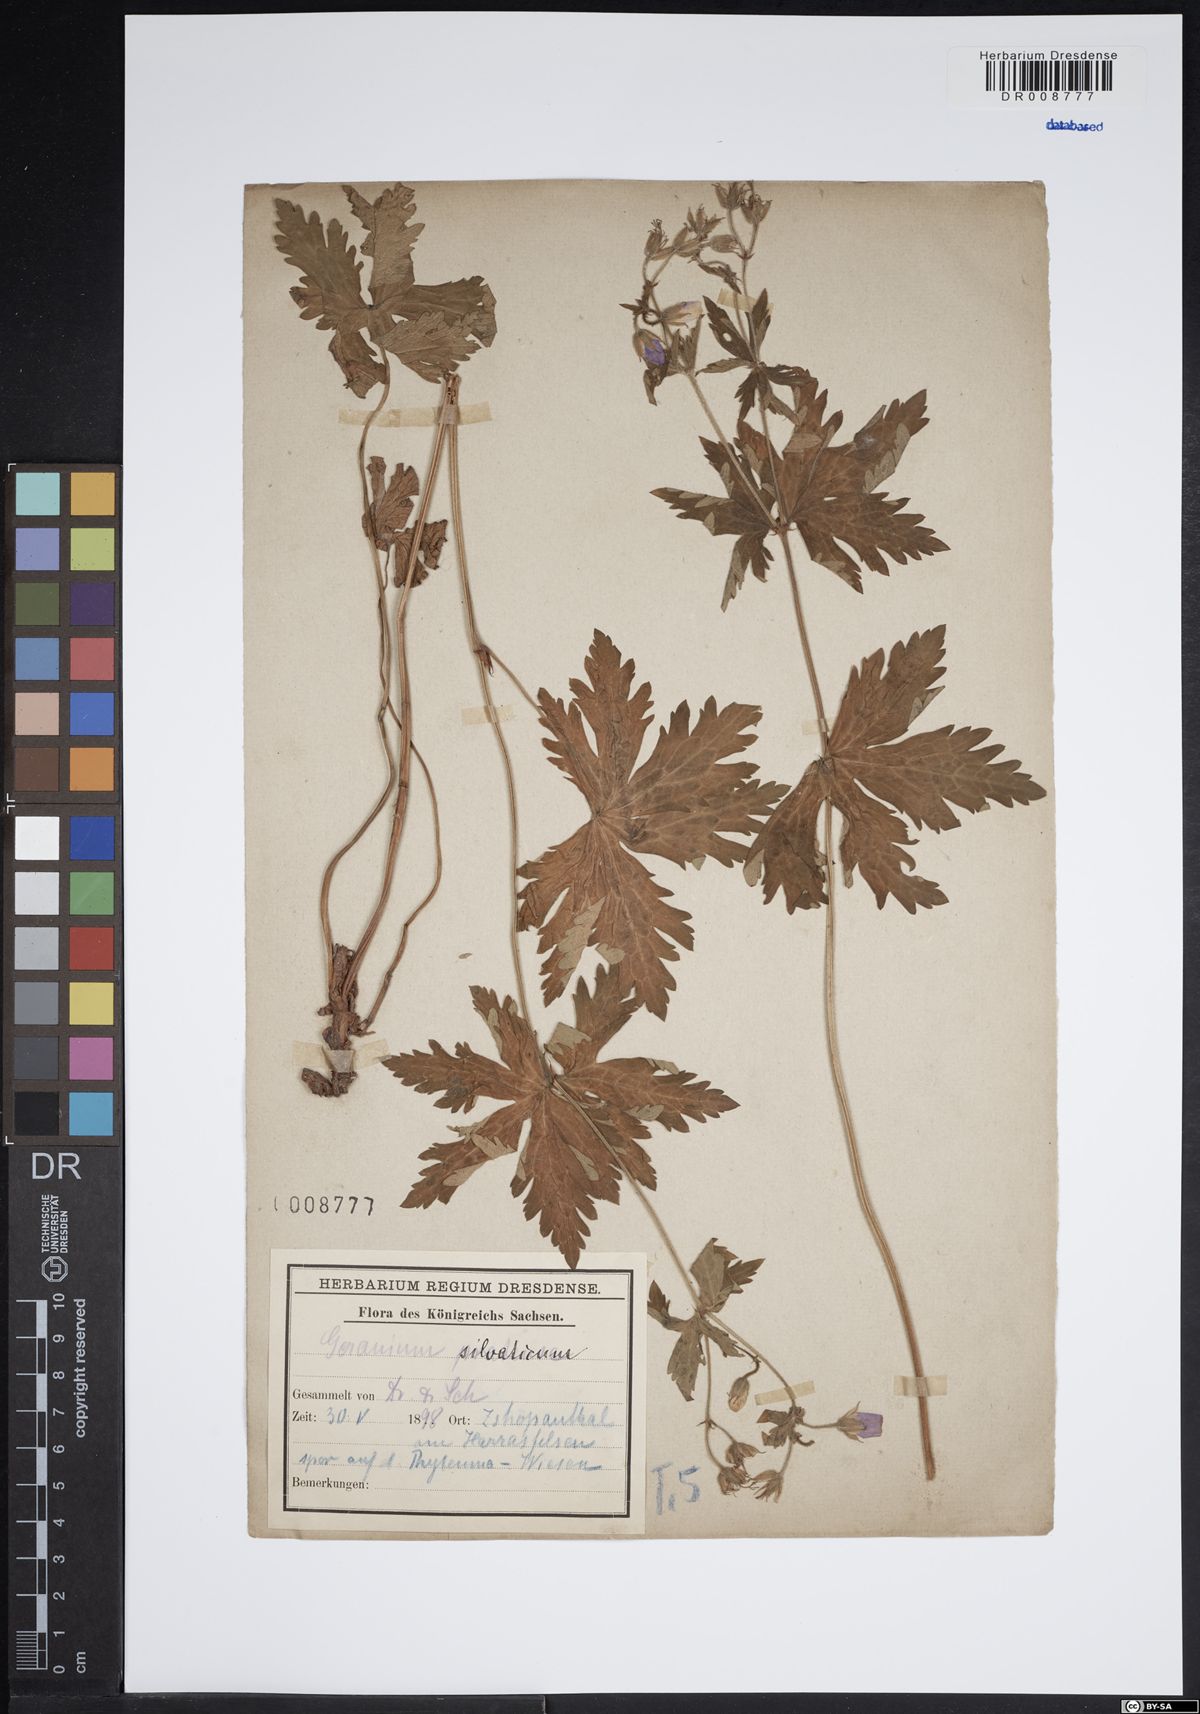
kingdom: Plantae
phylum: Tracheophyta
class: Magnoliopsida
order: Geraniales
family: Geraniaceae
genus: Geranium
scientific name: Geranium sylvaticum
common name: Wood crane's-bill
